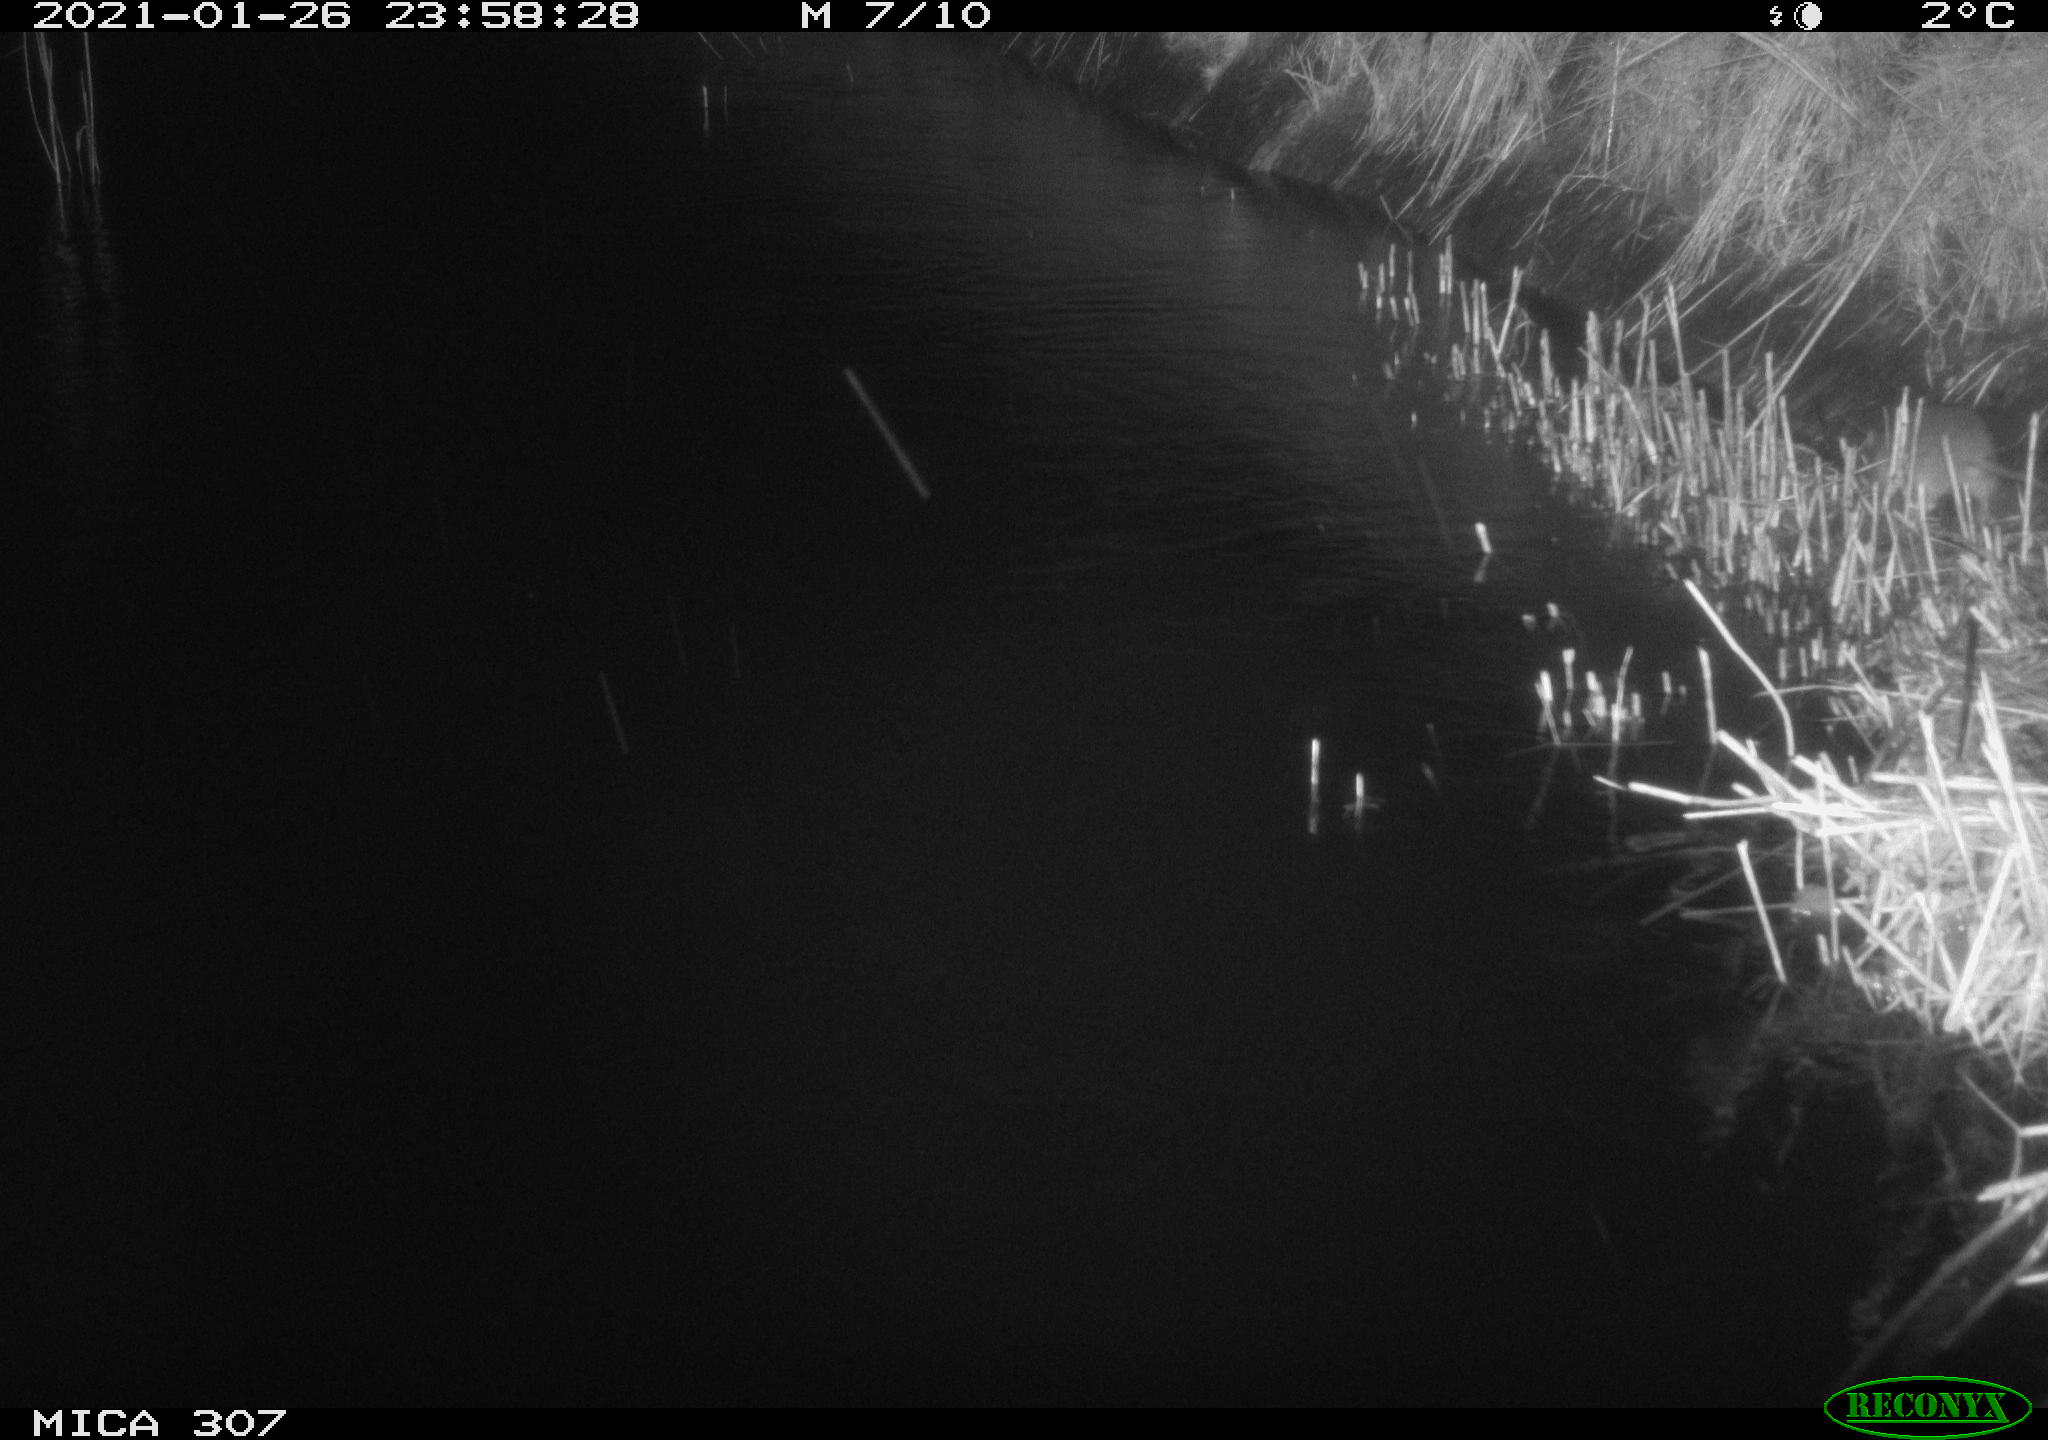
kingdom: Animalia
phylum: Chordata
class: Mammalia
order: Rodentia
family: Muridae
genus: Rattus
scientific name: Rattus norvegicus
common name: Brown rat
